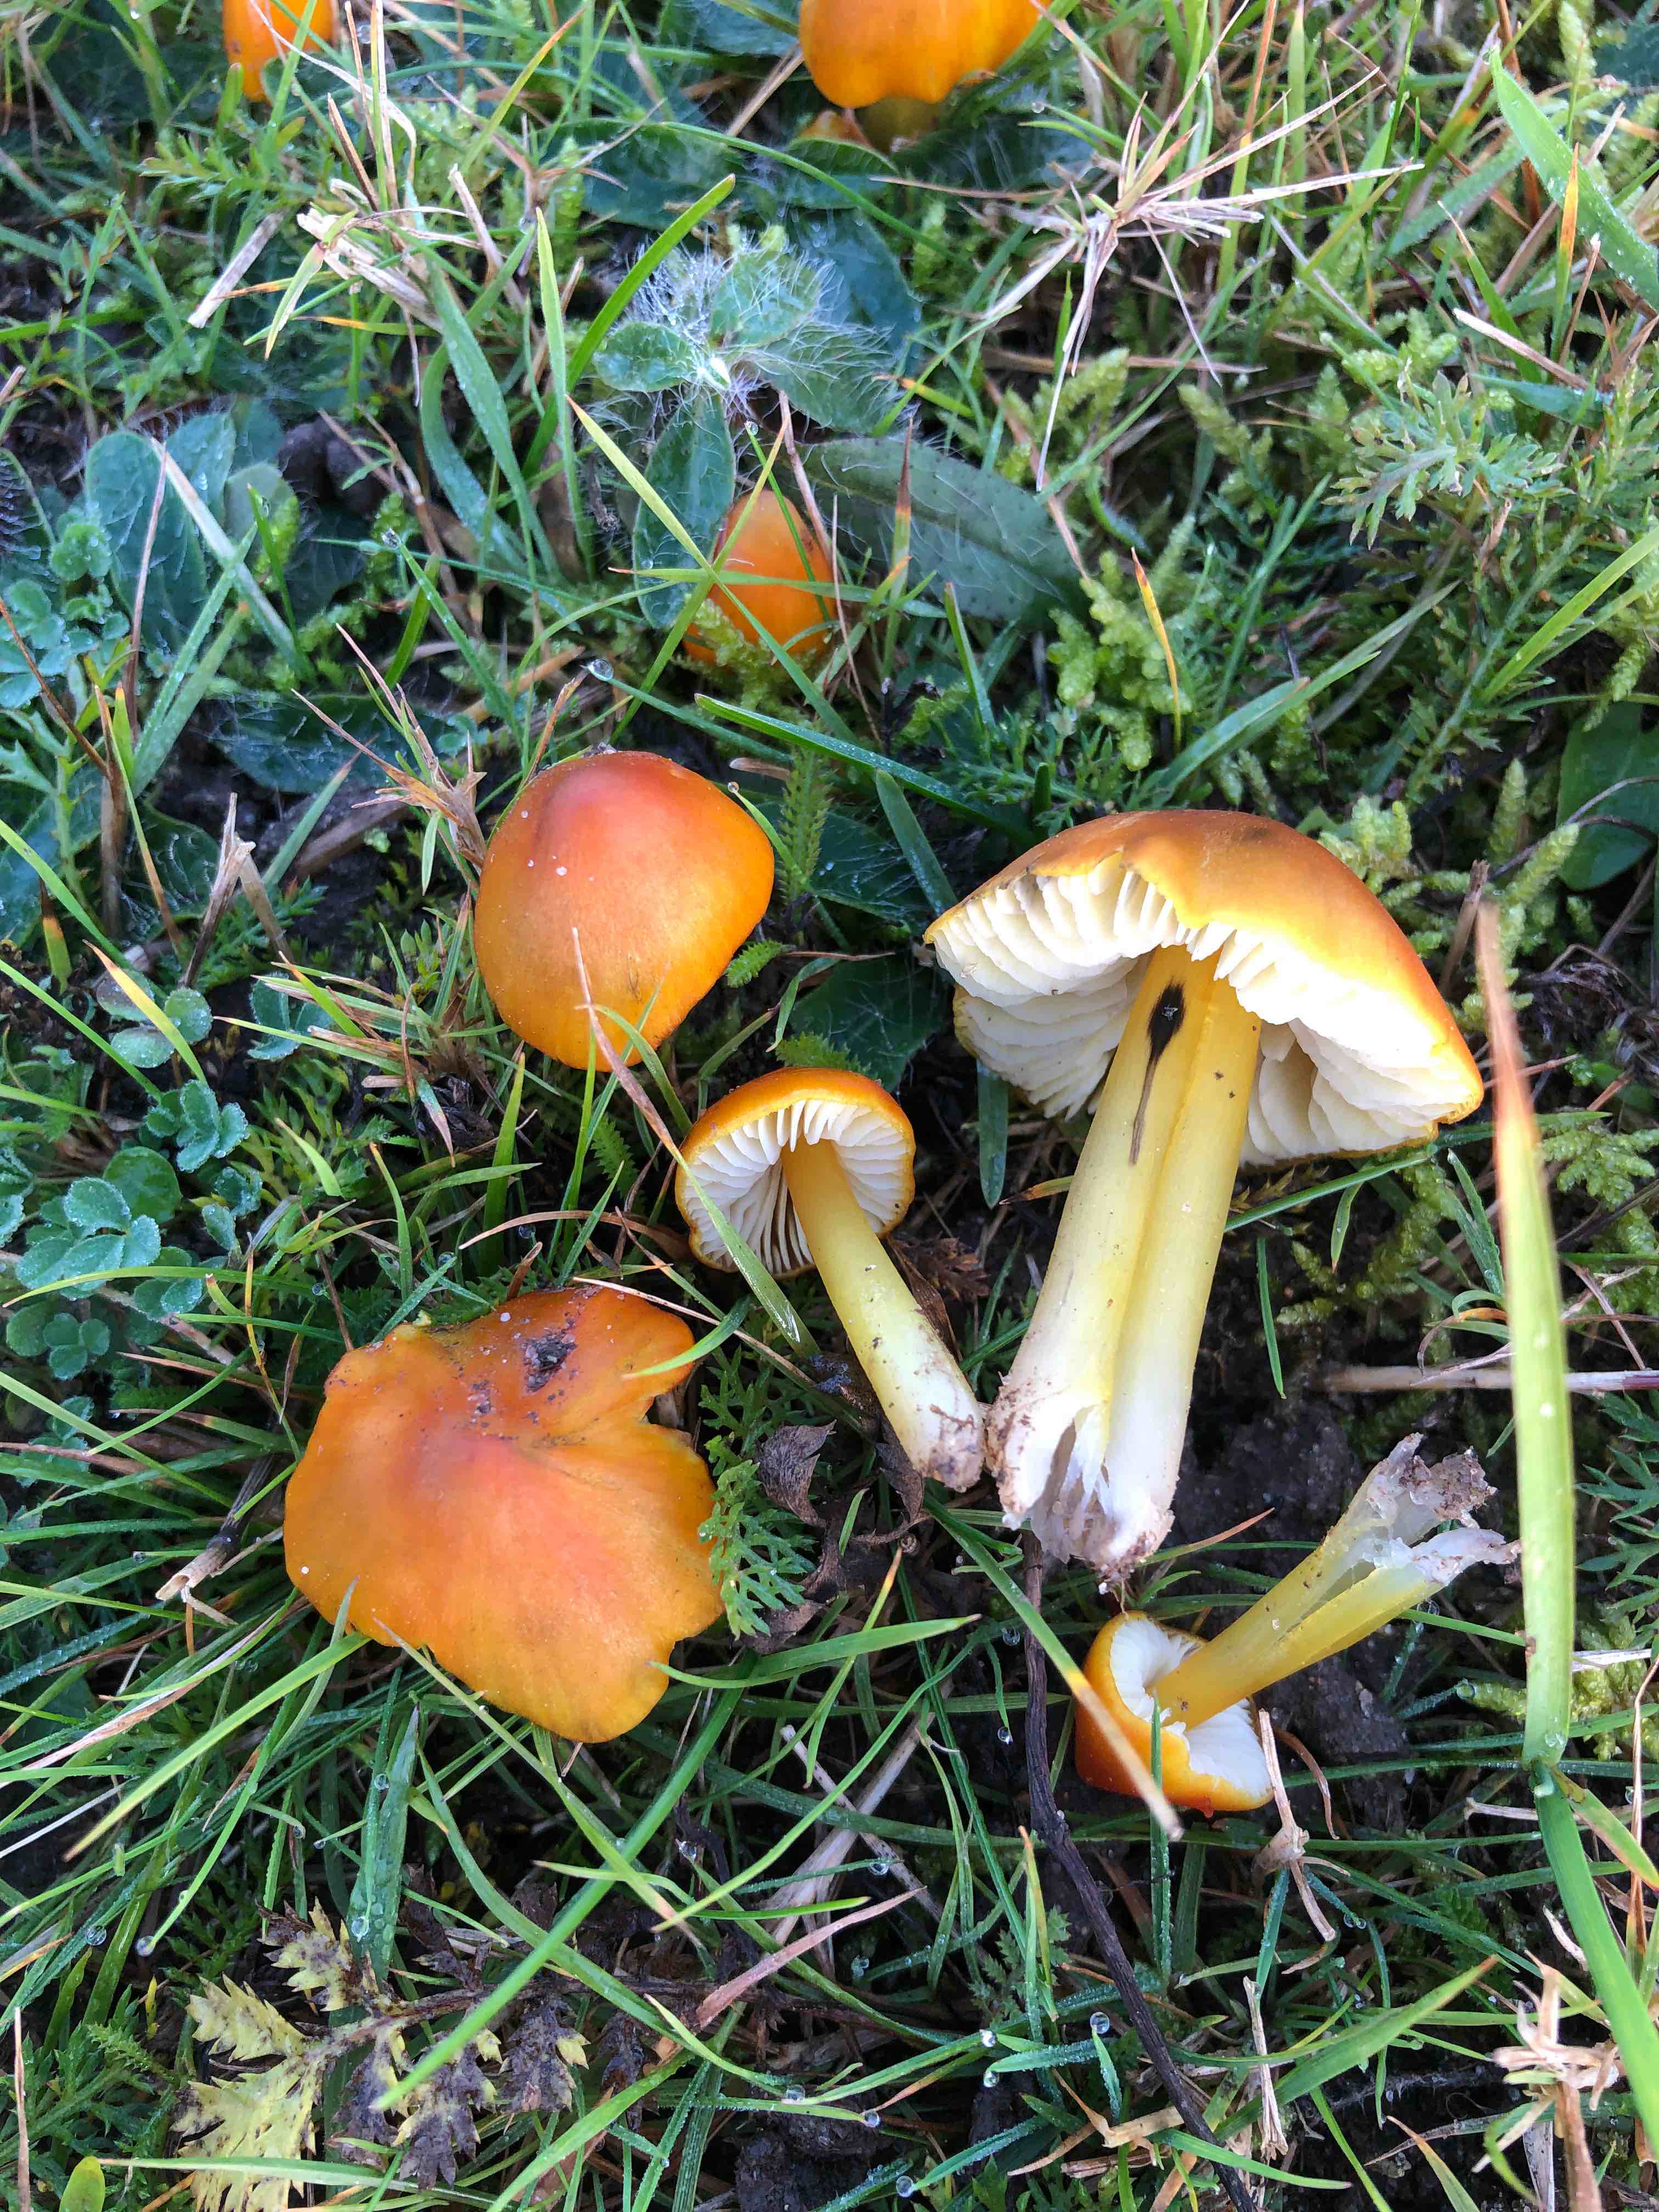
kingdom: Fungi
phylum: Basidiomycota
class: Agaricomycetes
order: Agaricales
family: Hygrophoraceae
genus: Hygrocybe
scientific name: Hygrocybe conica
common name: kegle-vokshat
